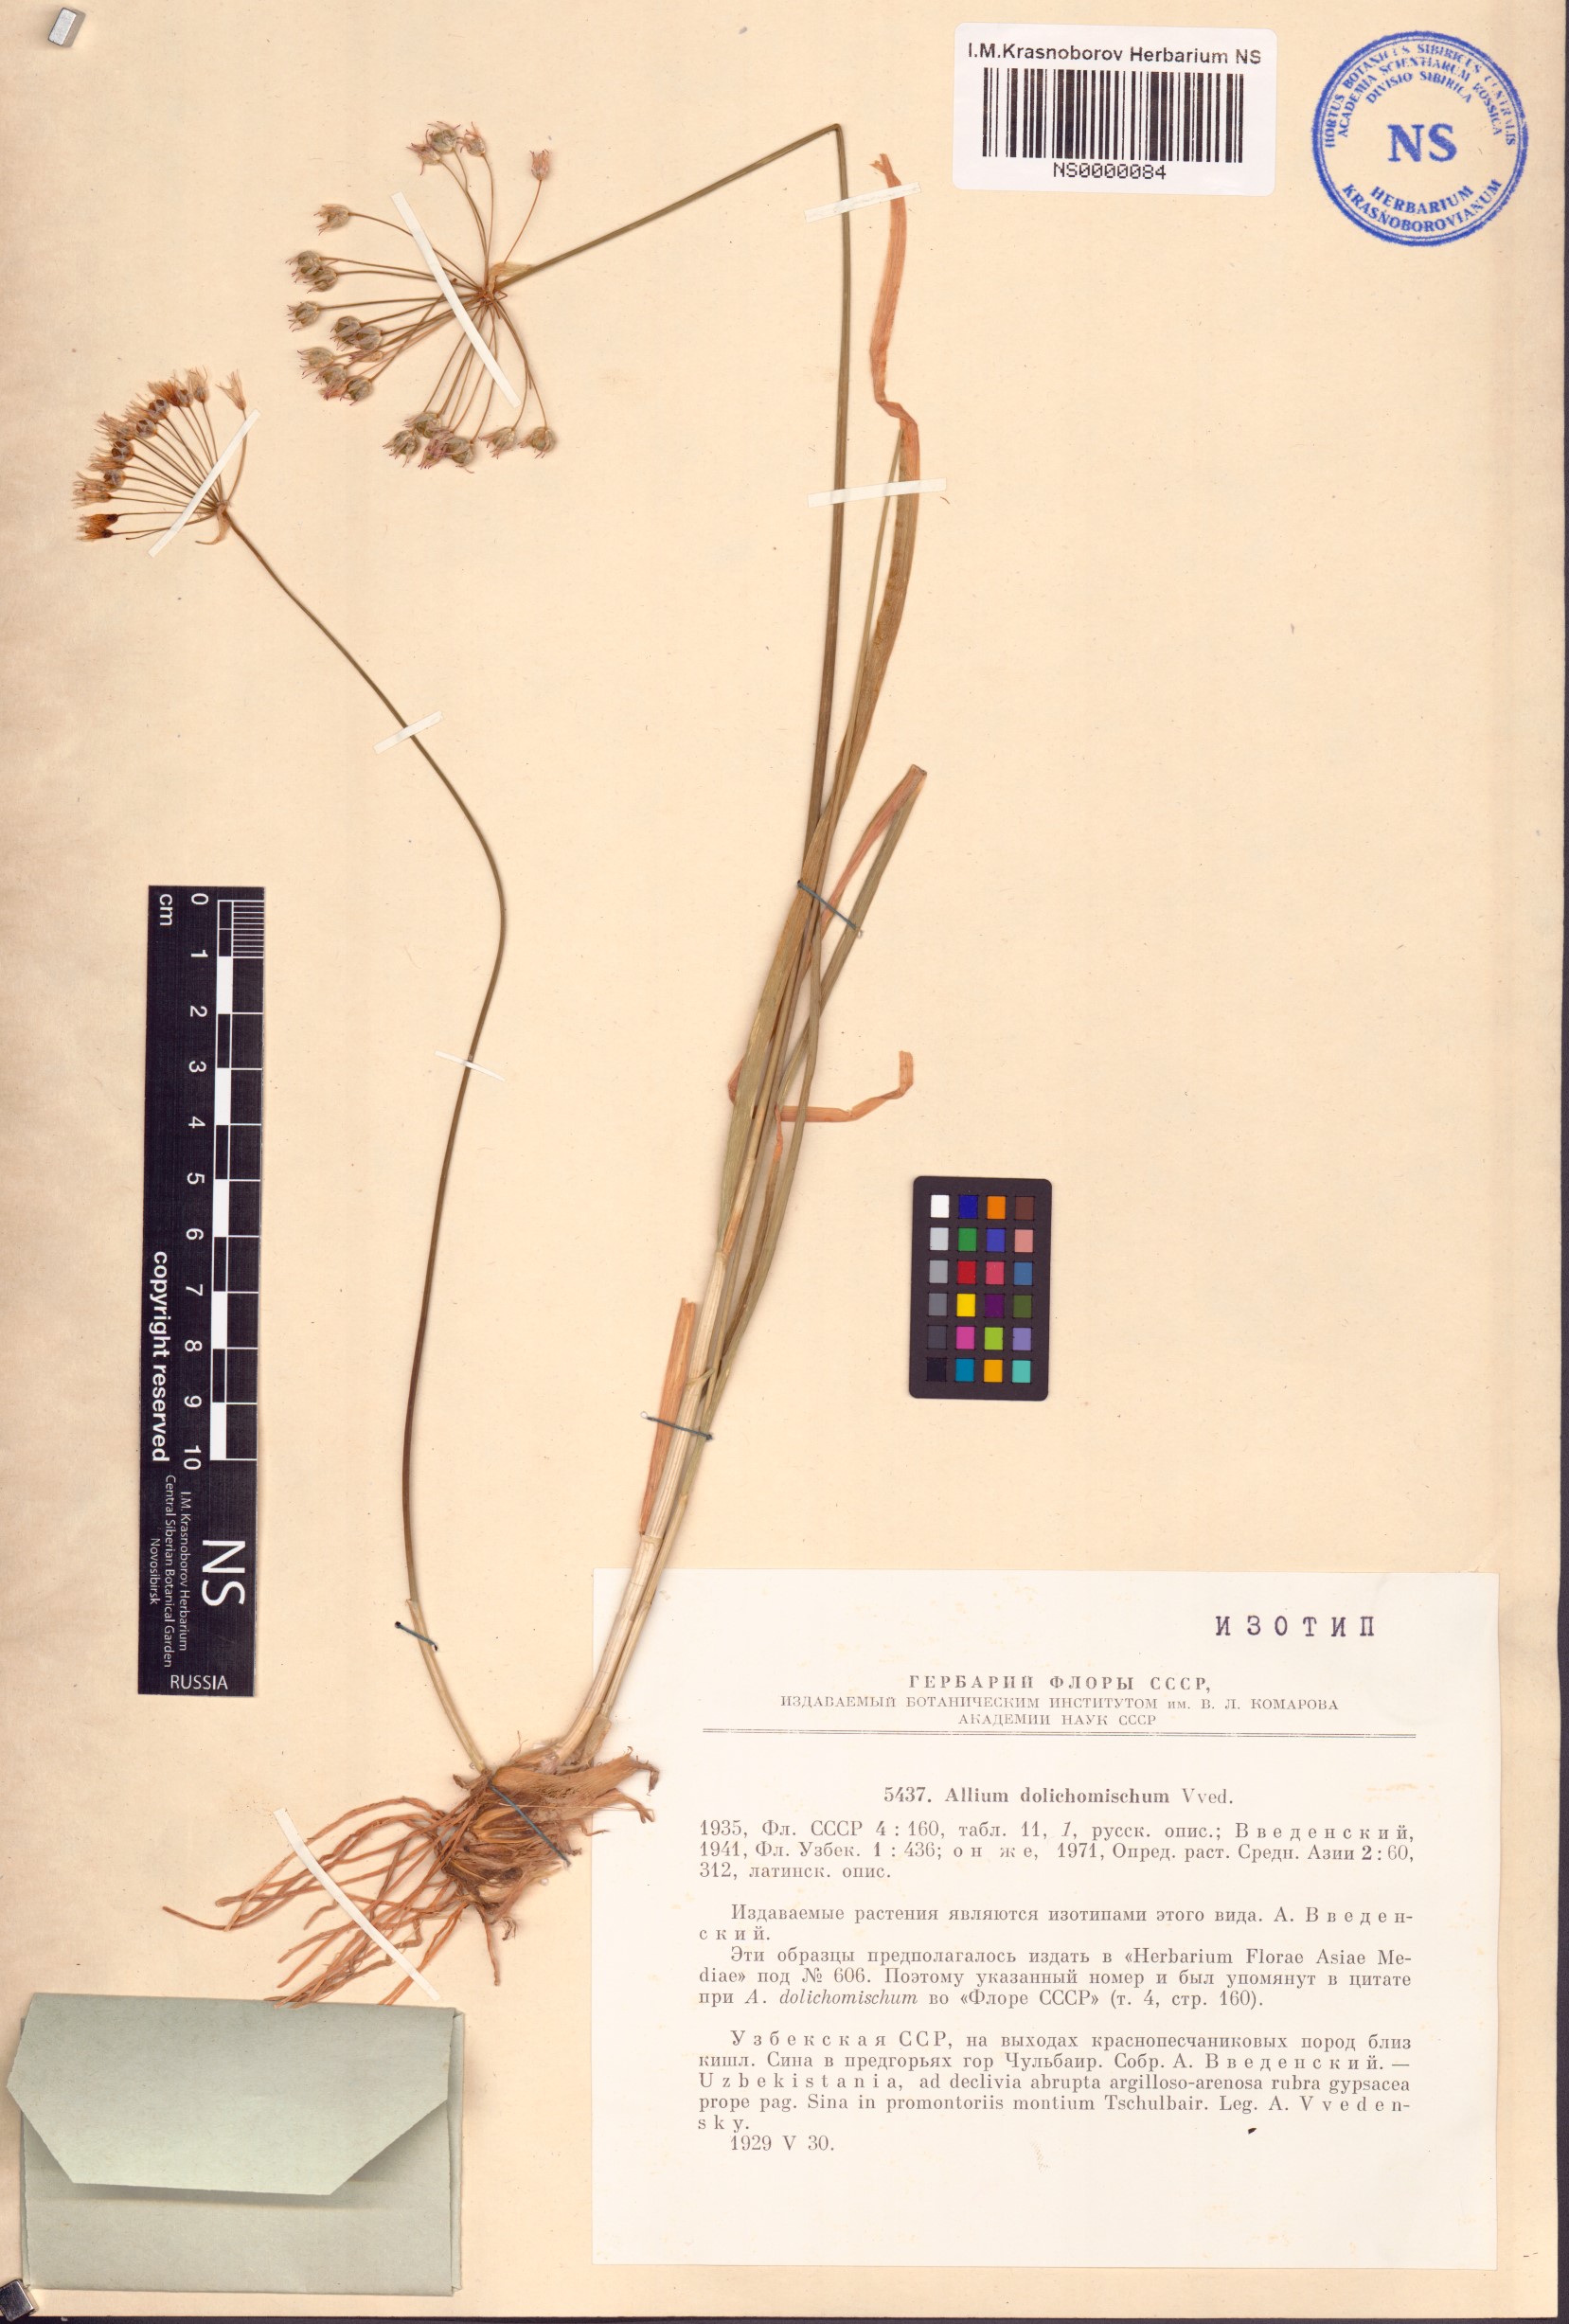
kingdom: Plantae
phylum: Tracheophyta
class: Liliopsida
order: Asparagales
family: Amaryllidaceae
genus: Allium
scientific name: Allium dolichomischum
